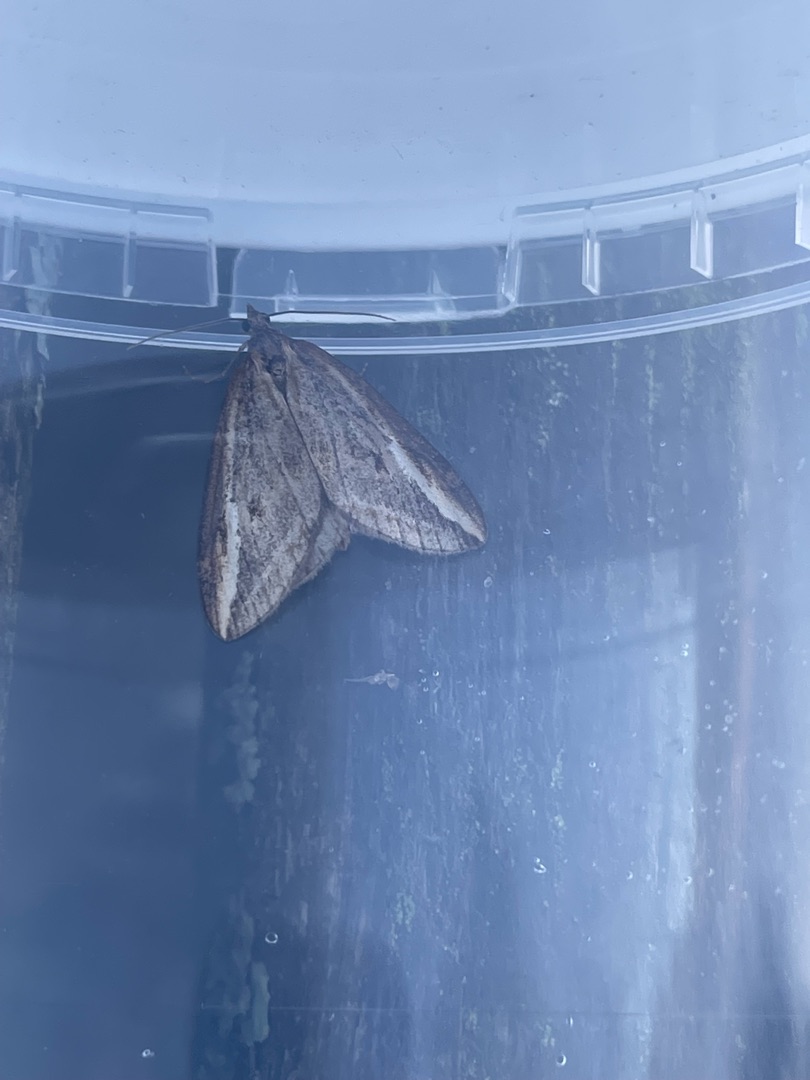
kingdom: Animalia
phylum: Arthropoda
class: Insecta
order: Lepidoptera
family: Geometridae
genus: Chesias
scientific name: Chesias legatella
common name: Stor gyvelmåler
